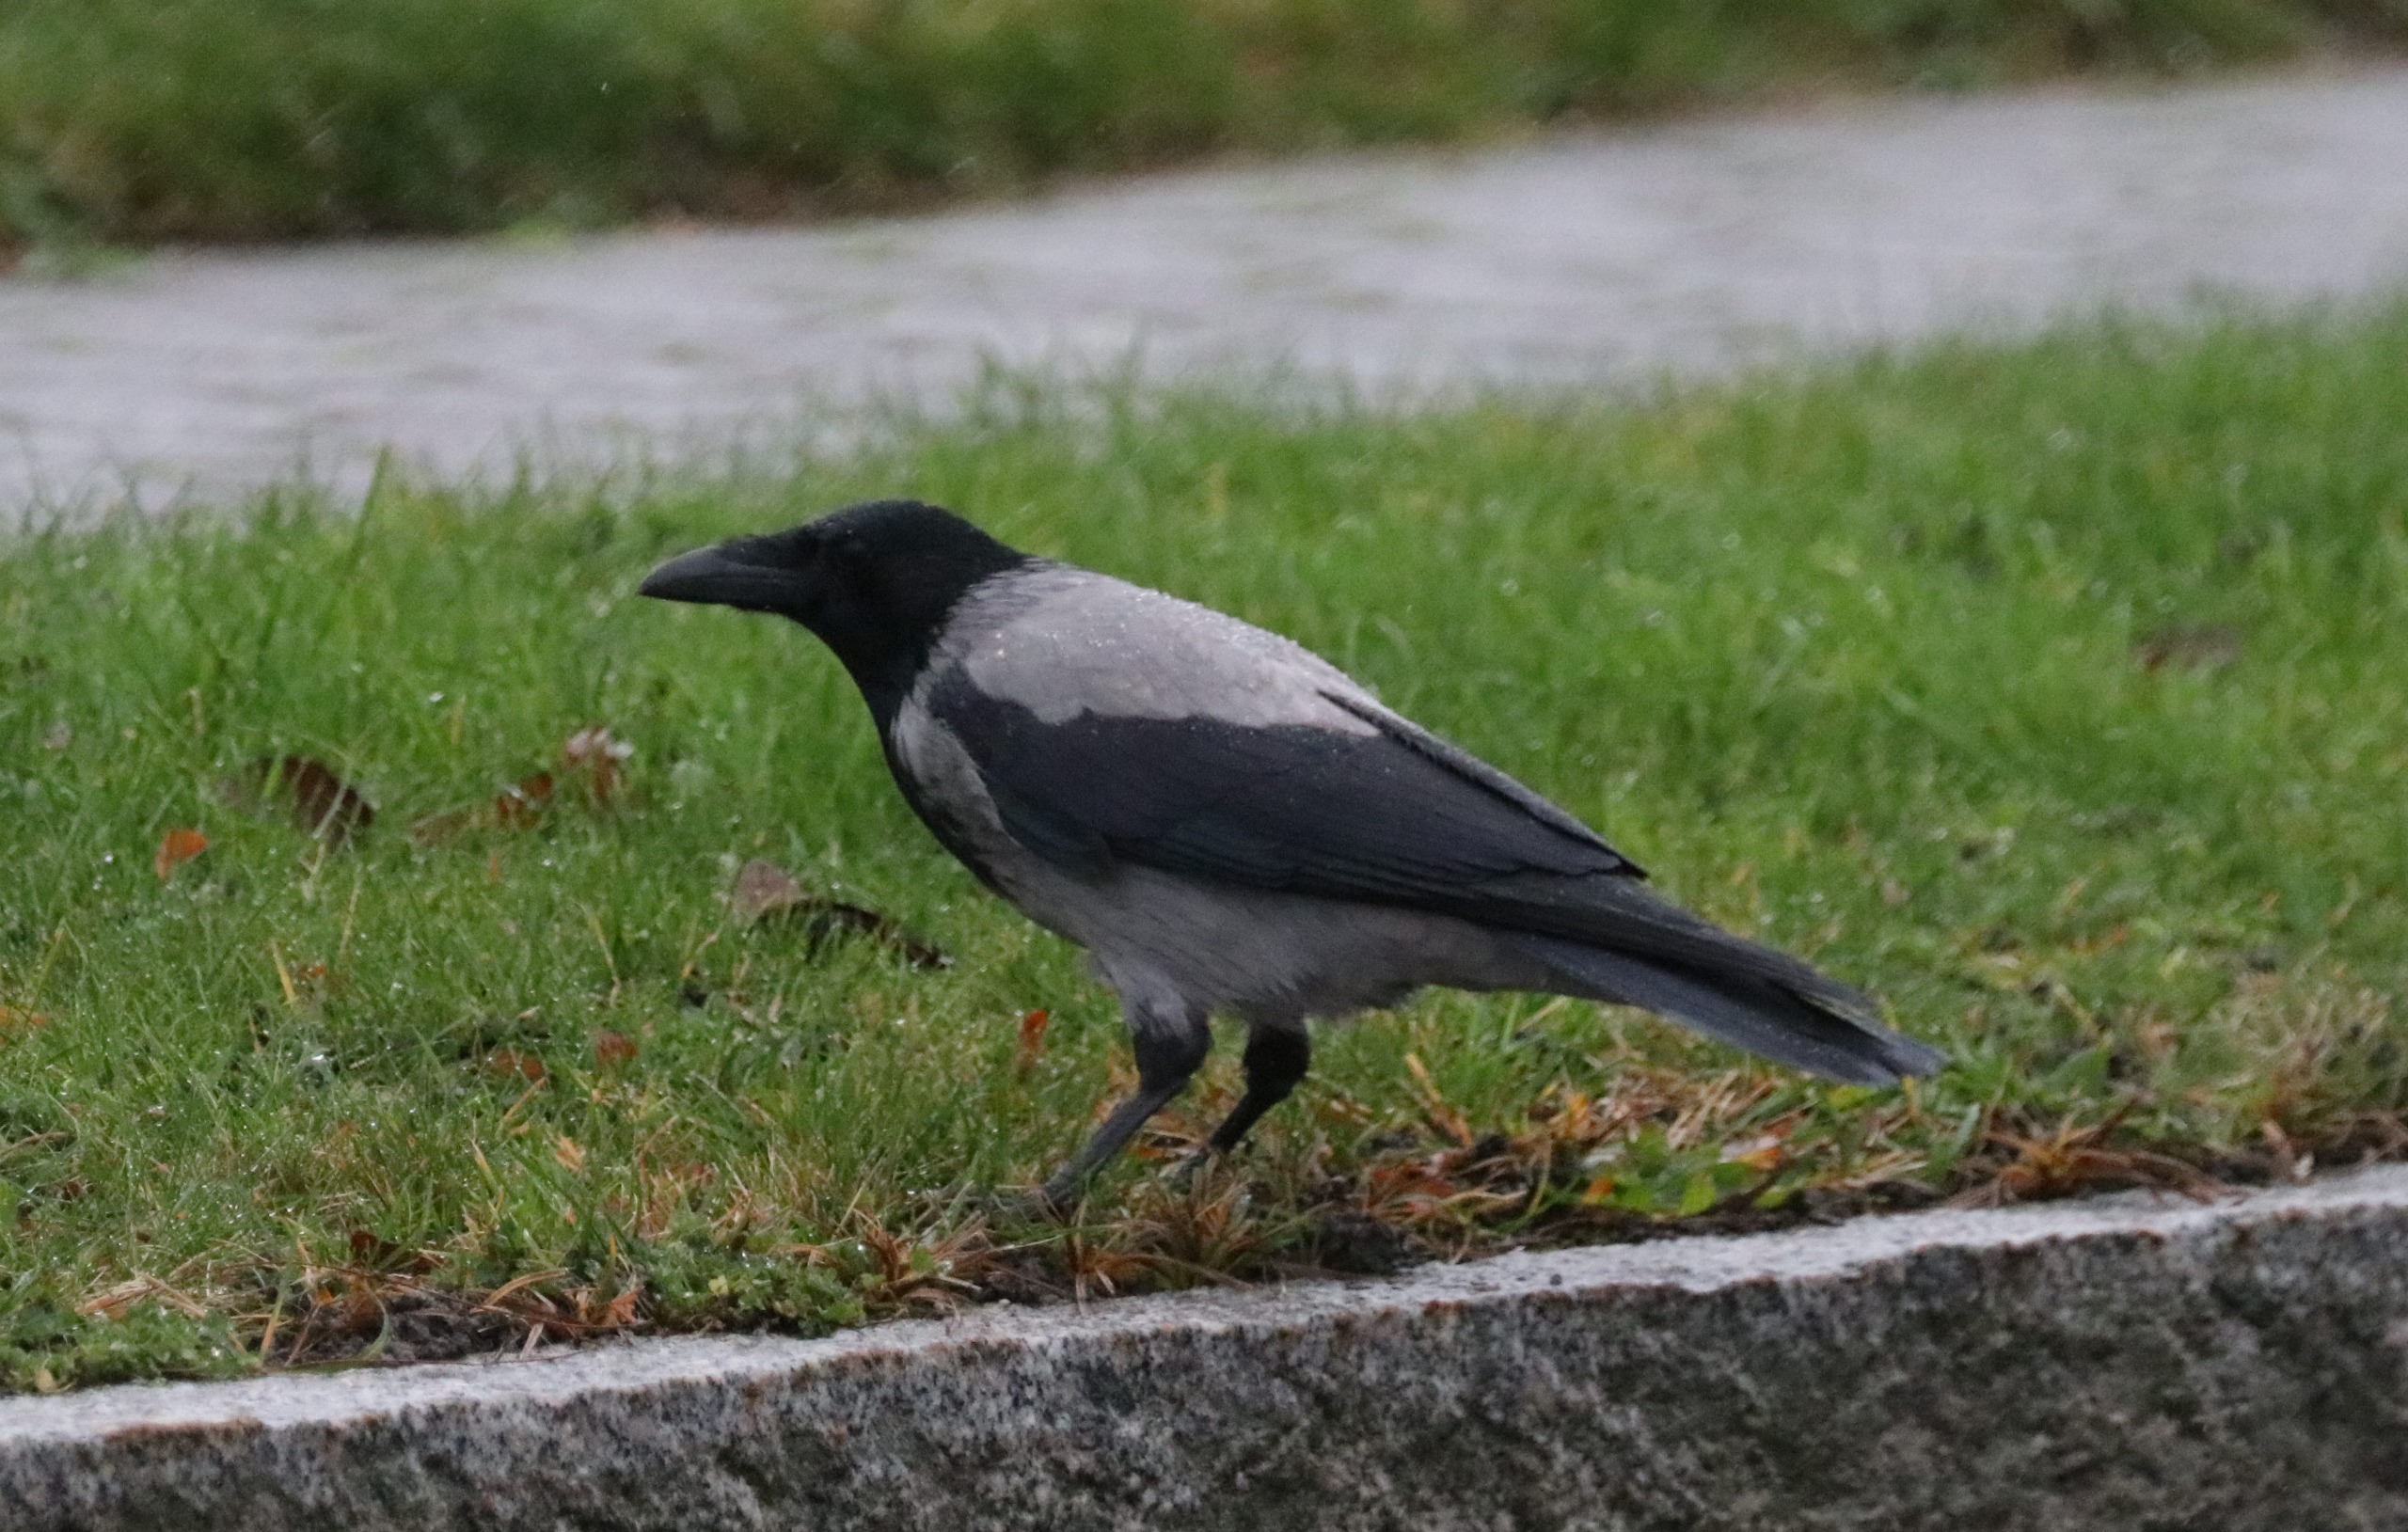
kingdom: Animalia
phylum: Chordata
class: Aves
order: Passeriformes
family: Corvidae
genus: Corvus
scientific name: Corvus cornix
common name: Gråkrage
